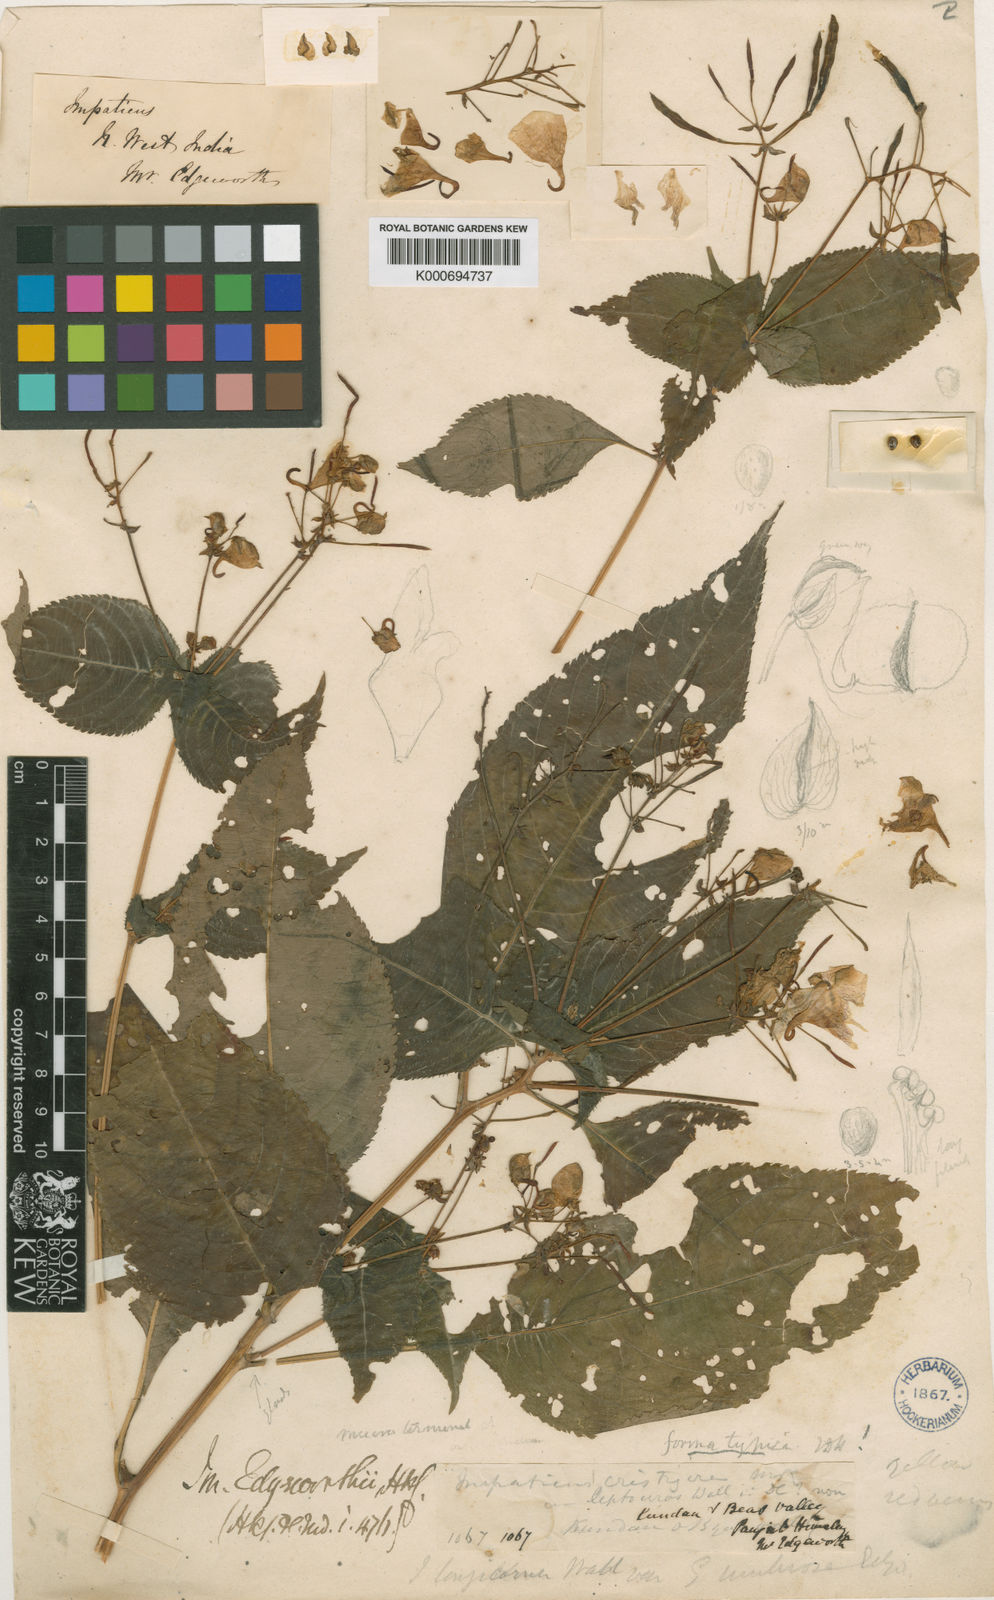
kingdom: Plantae
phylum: Tracheophyta
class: Magnoliopsida
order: Ericales
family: Balsaminaceae
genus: Impatiens
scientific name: Impatiens edgeworthii
